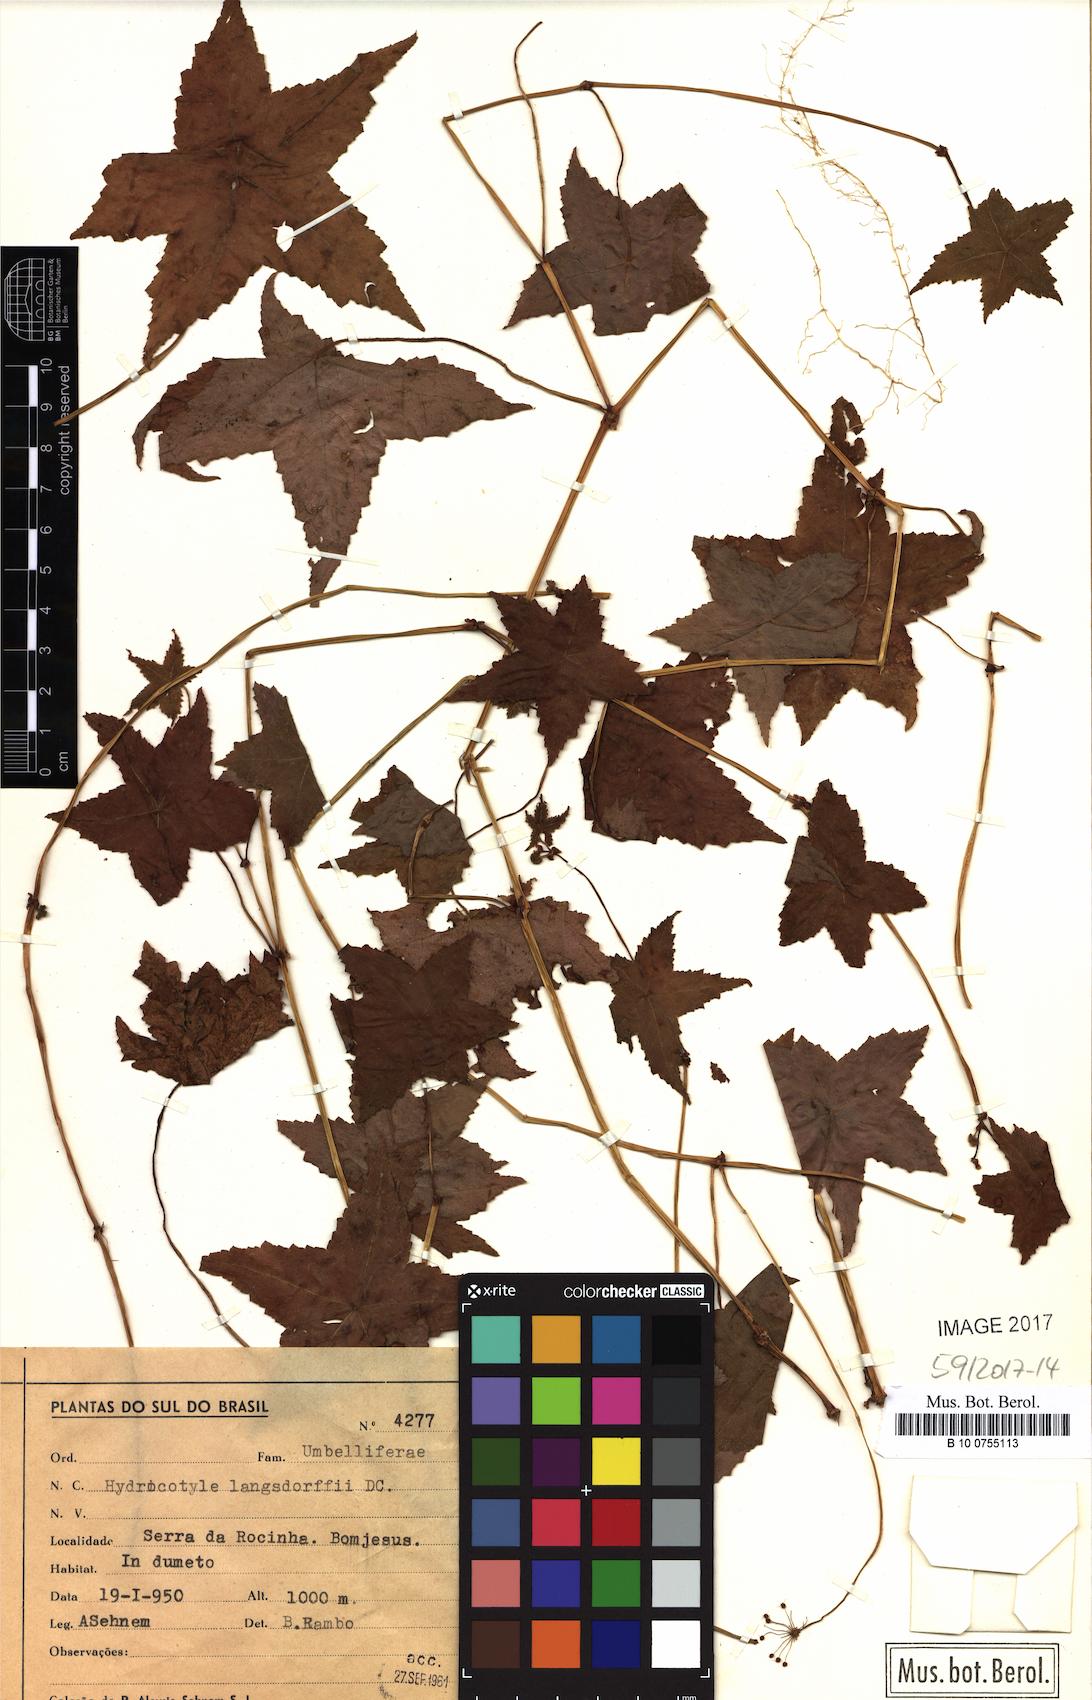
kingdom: Plantae
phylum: Tracheophyta
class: Magnoliopsida
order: Apiales
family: Araliaceae
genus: Hydrocotyle
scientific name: Hydrocotyle quinqueloba
